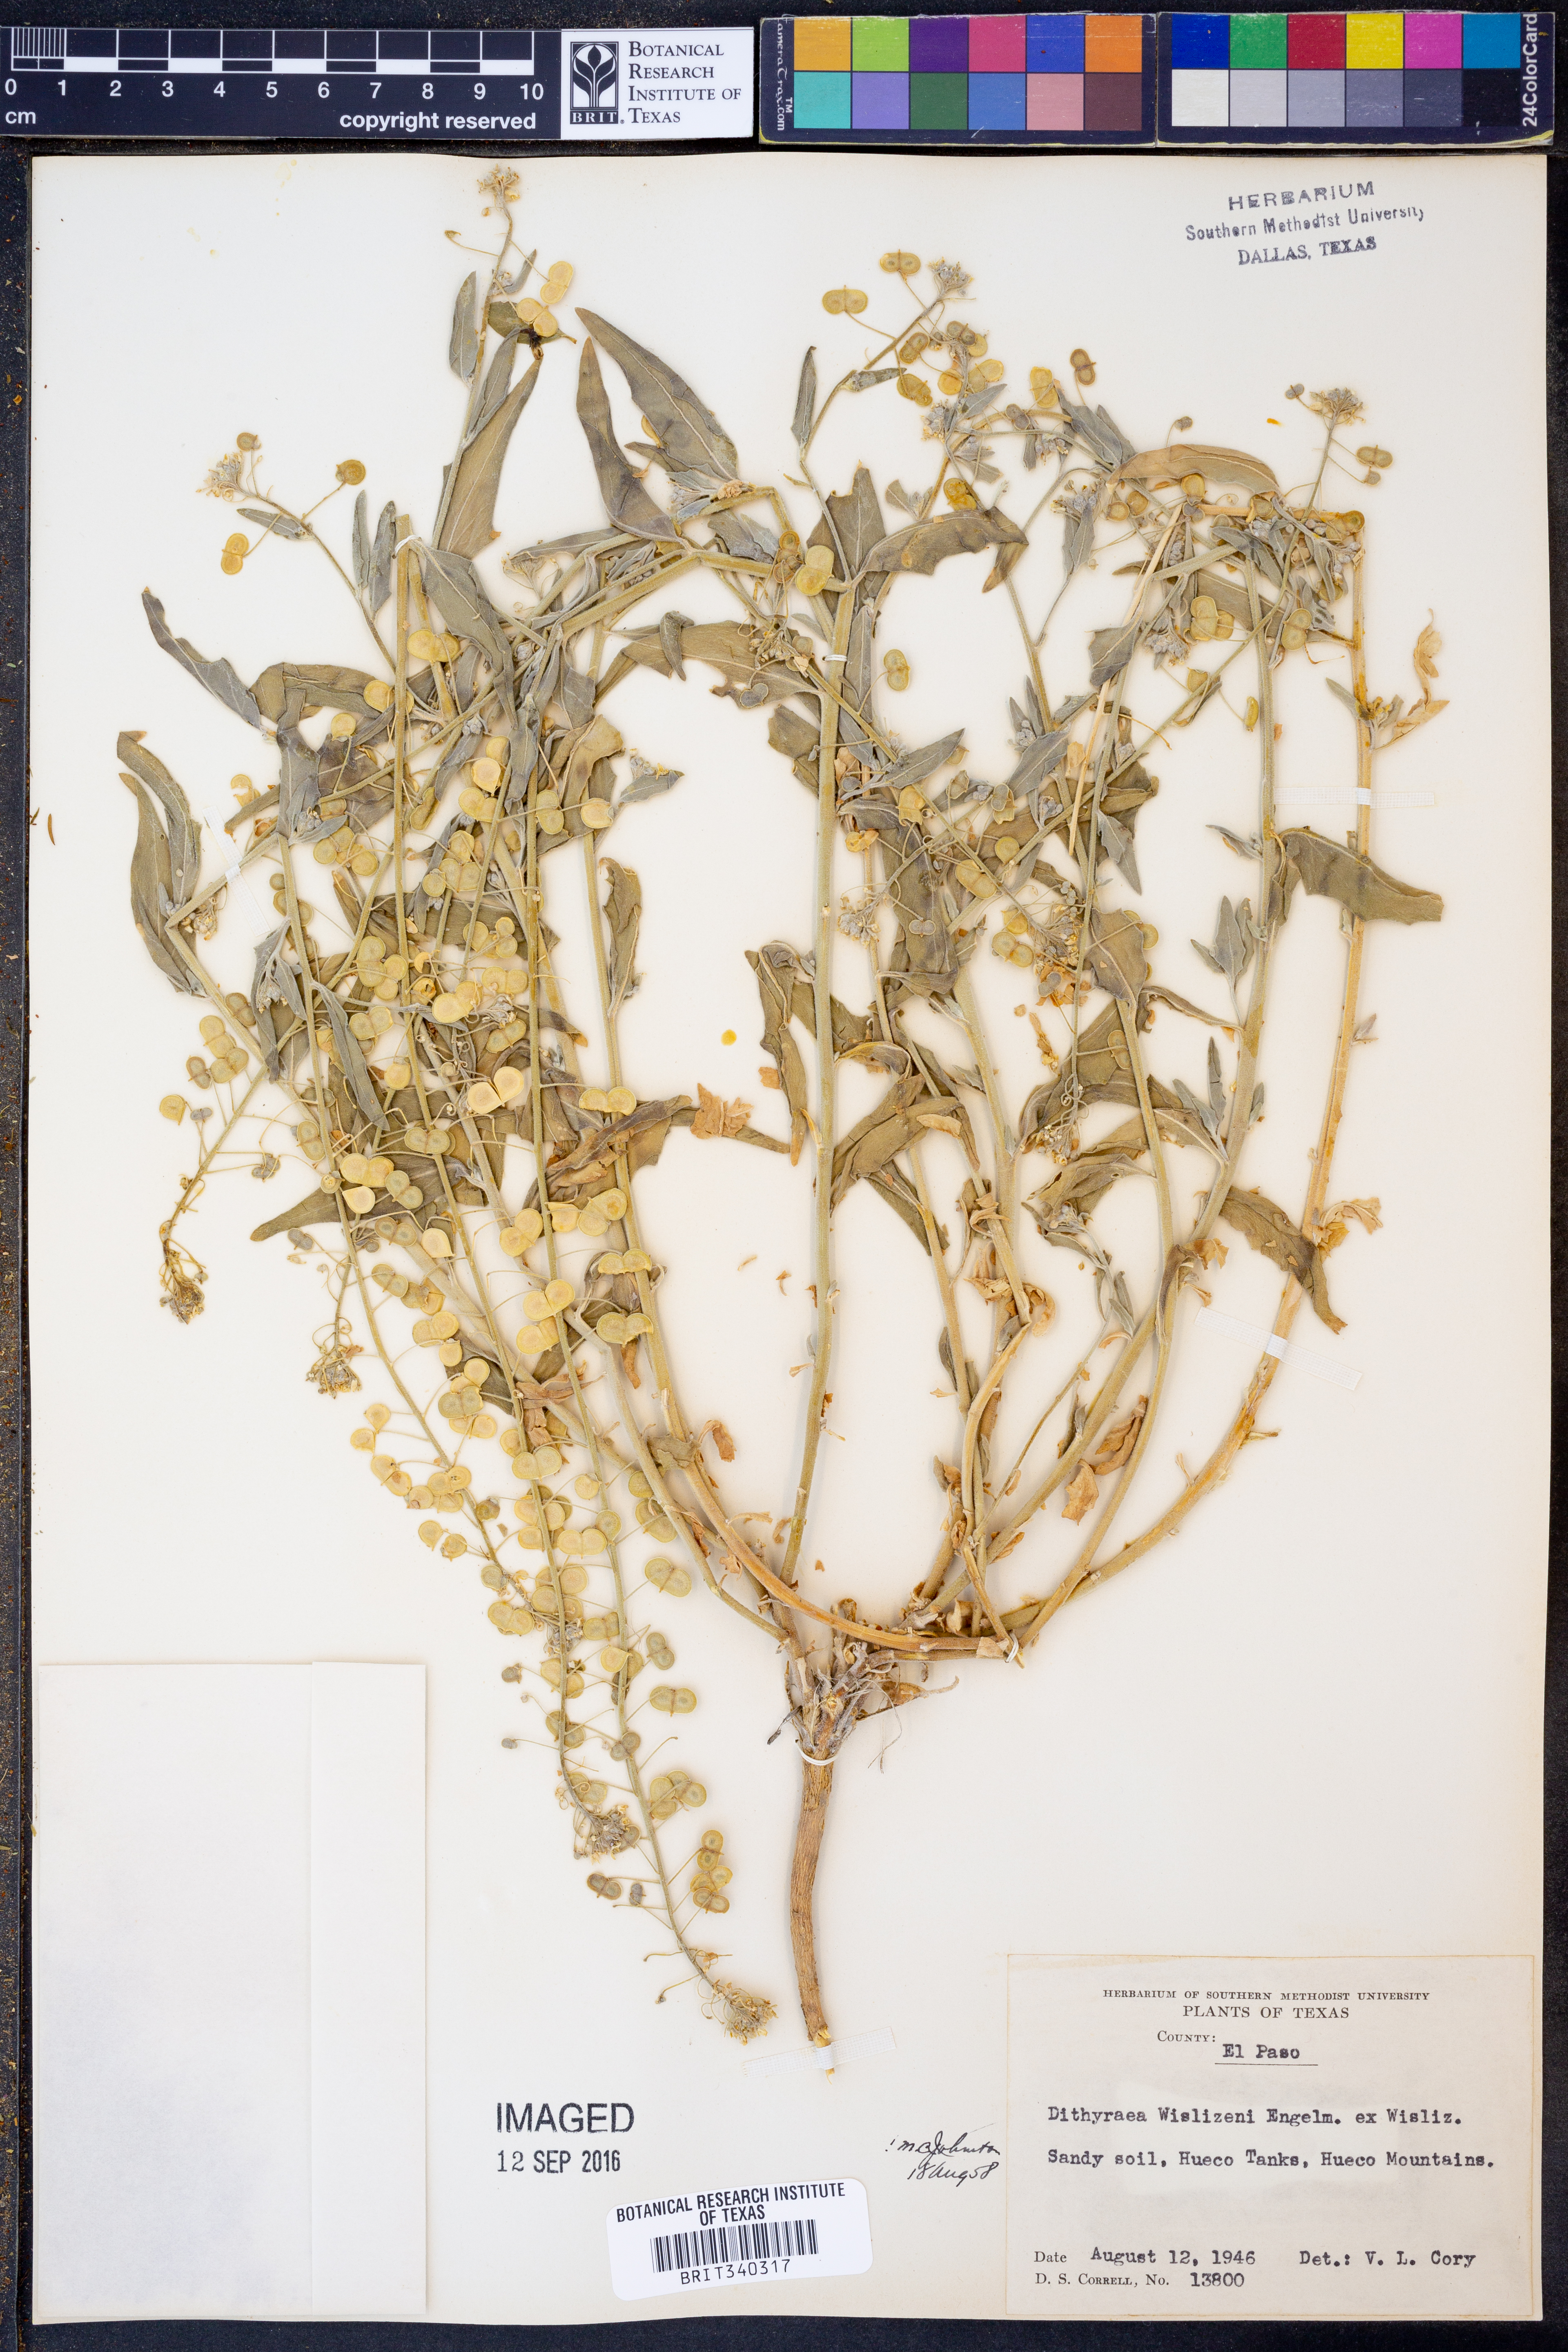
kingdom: Plantae
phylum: Tracheophyta
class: Magnoliopsida
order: Brassicales
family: Brassicaceae
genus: Dimorphocarpa
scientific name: Dimorphocarpa wislizenii
